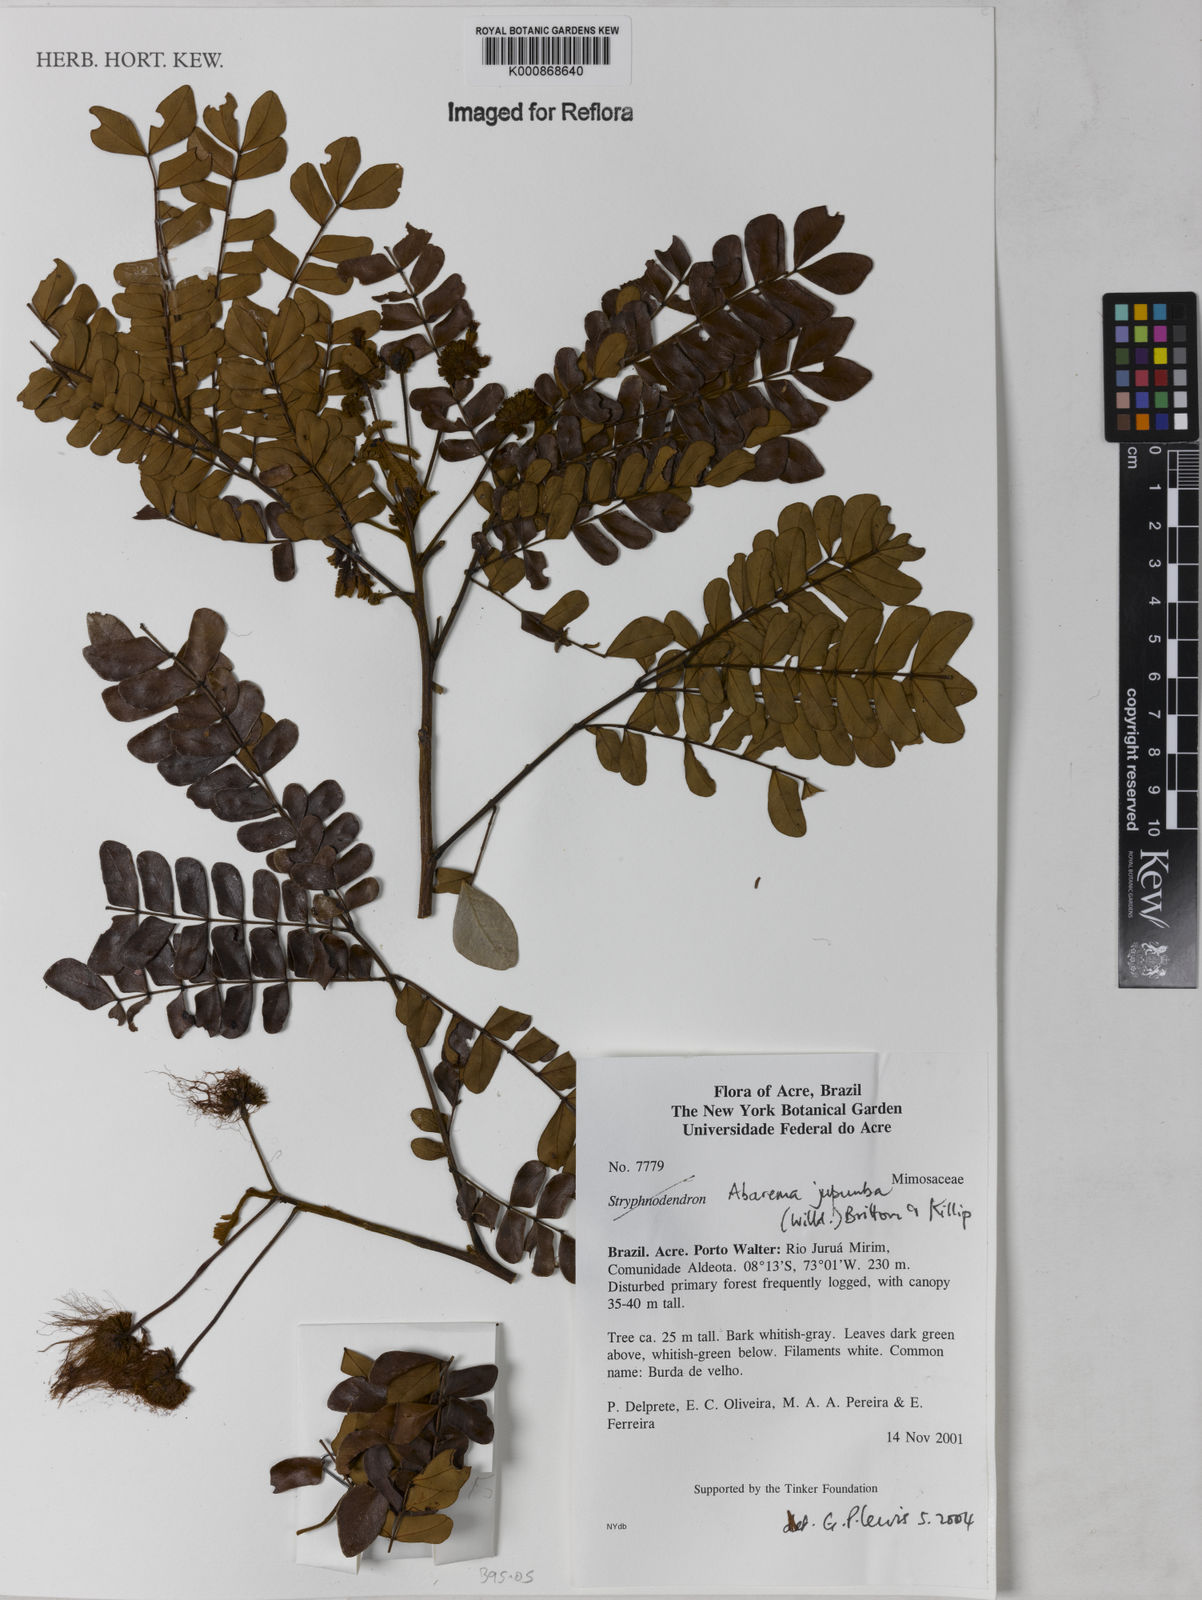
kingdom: Plantae
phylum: Tracheophyta
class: Magnoliopsida
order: Fabales
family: Fabaceae
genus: Jupunba
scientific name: Jupunba trapezifolia
